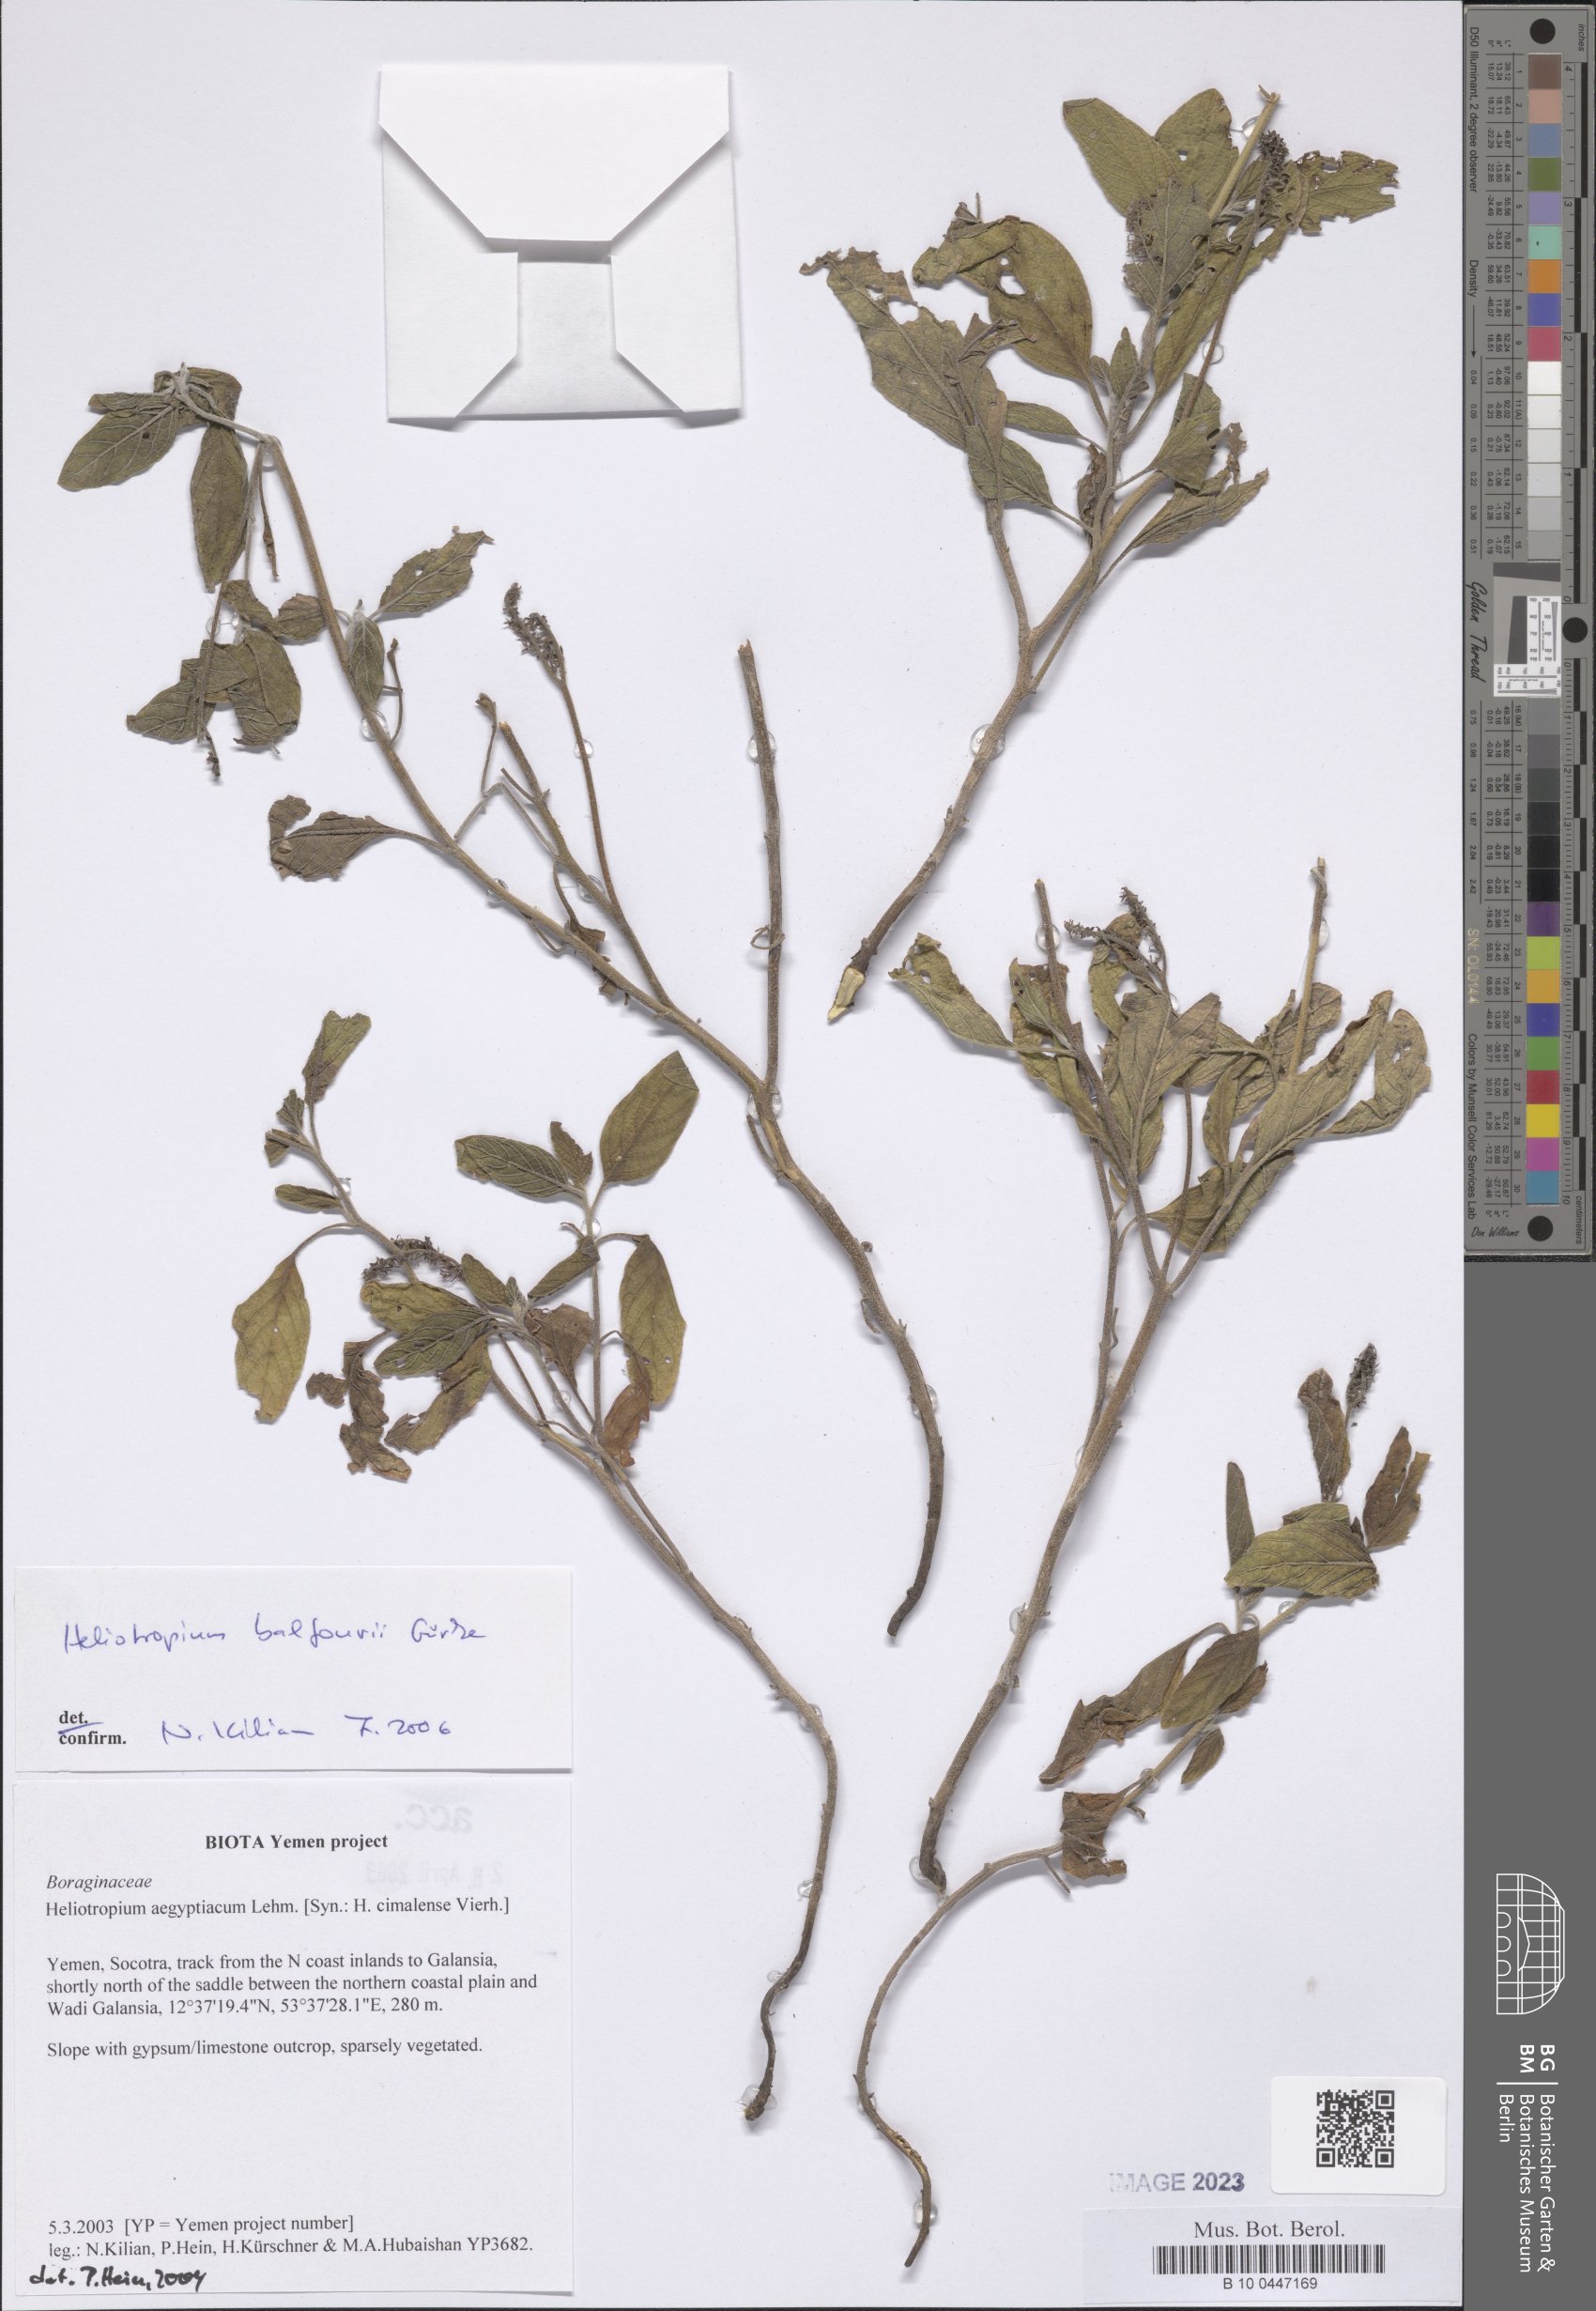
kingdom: Plantae
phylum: Tracheophyta
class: Magnoliopsida
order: Boraginales
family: Heliotropiaceae
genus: Heliotropium
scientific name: Heliotropium balfourii
